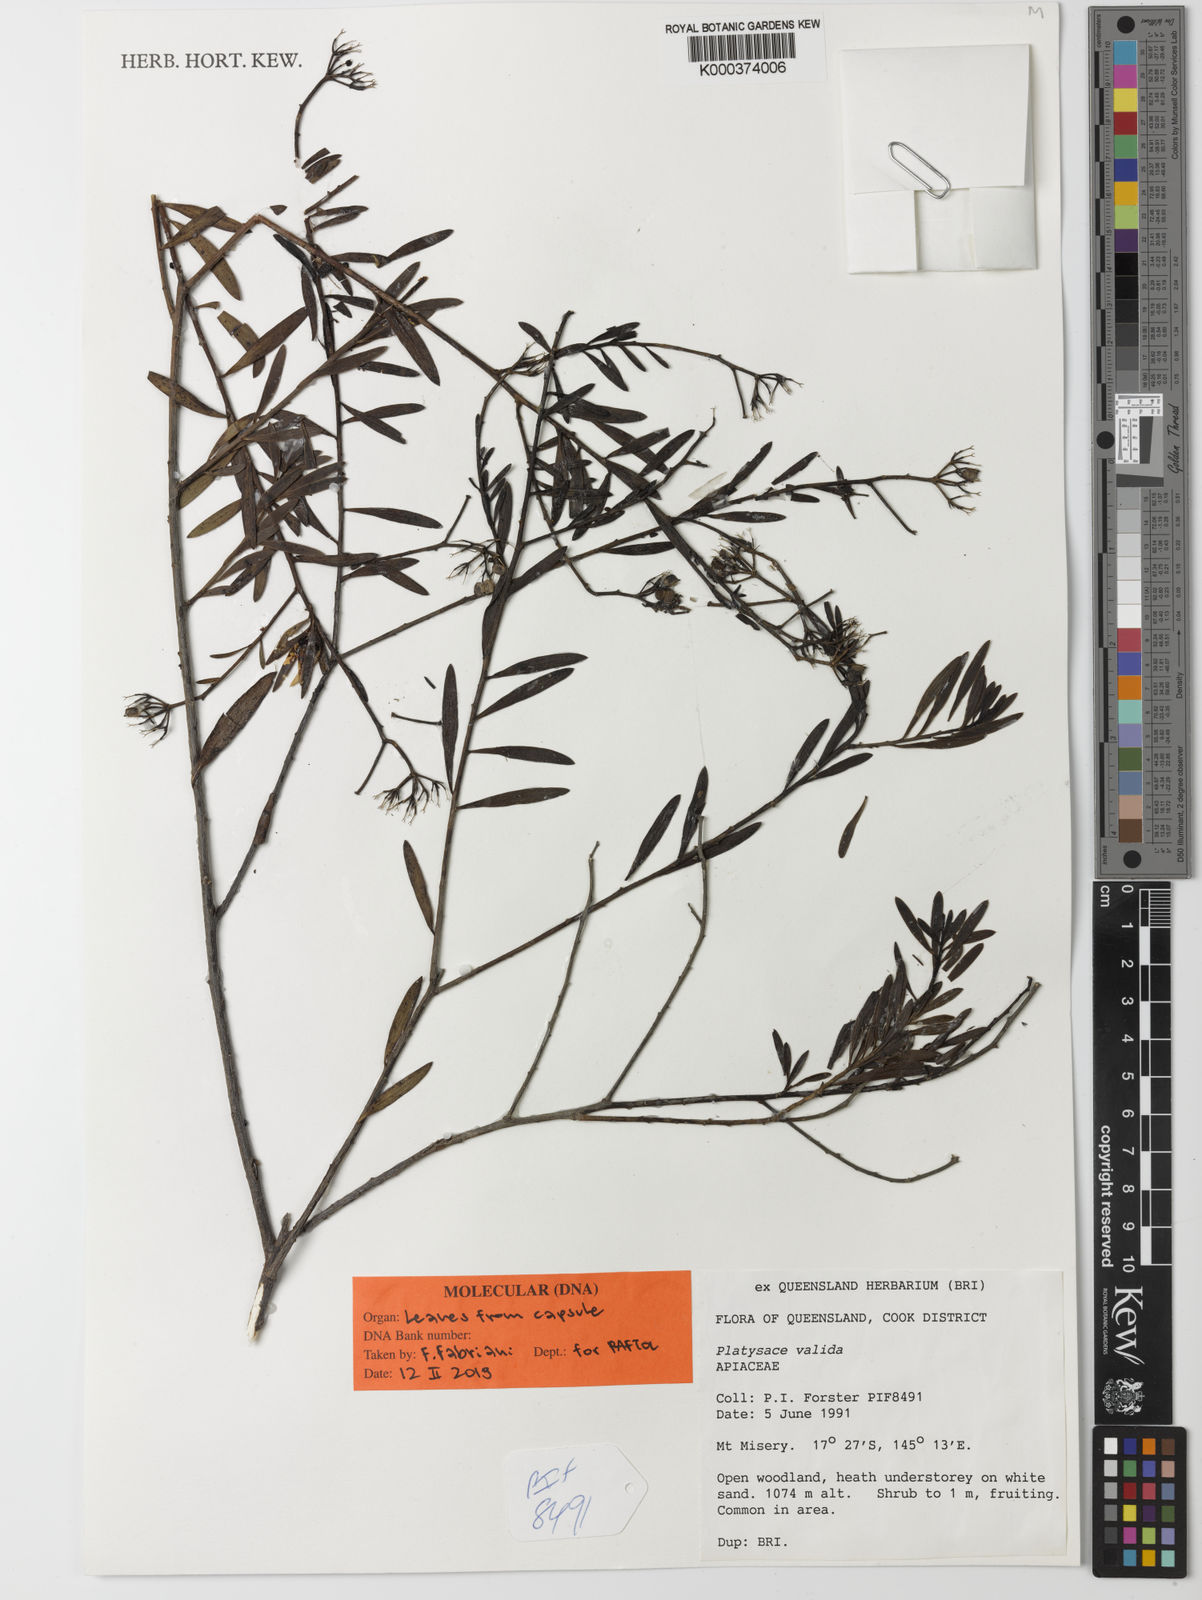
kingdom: Plantae
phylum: Tracheophyta
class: Magnoliopsida
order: Apiales
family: Apiaceae
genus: Platysace
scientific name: Platysace valida
